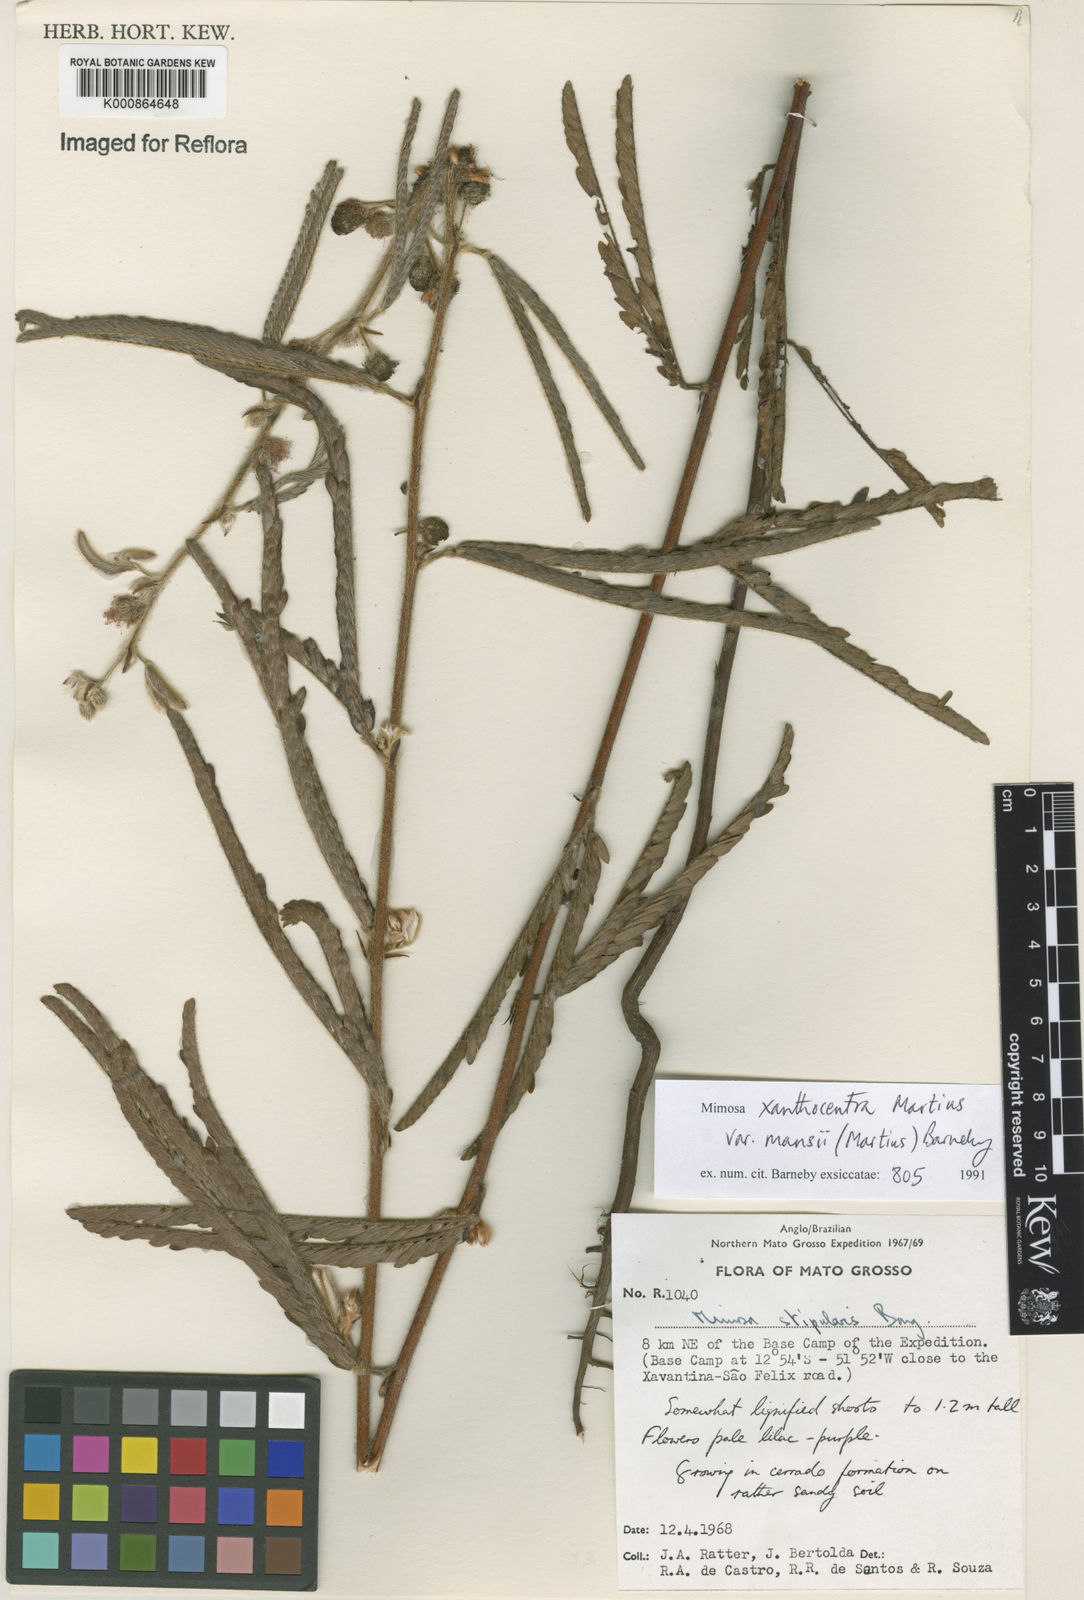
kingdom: Plantae
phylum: Tracheophyta
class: Magnoliopsida
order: Fabales
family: Fabaceae
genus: Mimosa
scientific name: Mimosa xanthocentra
